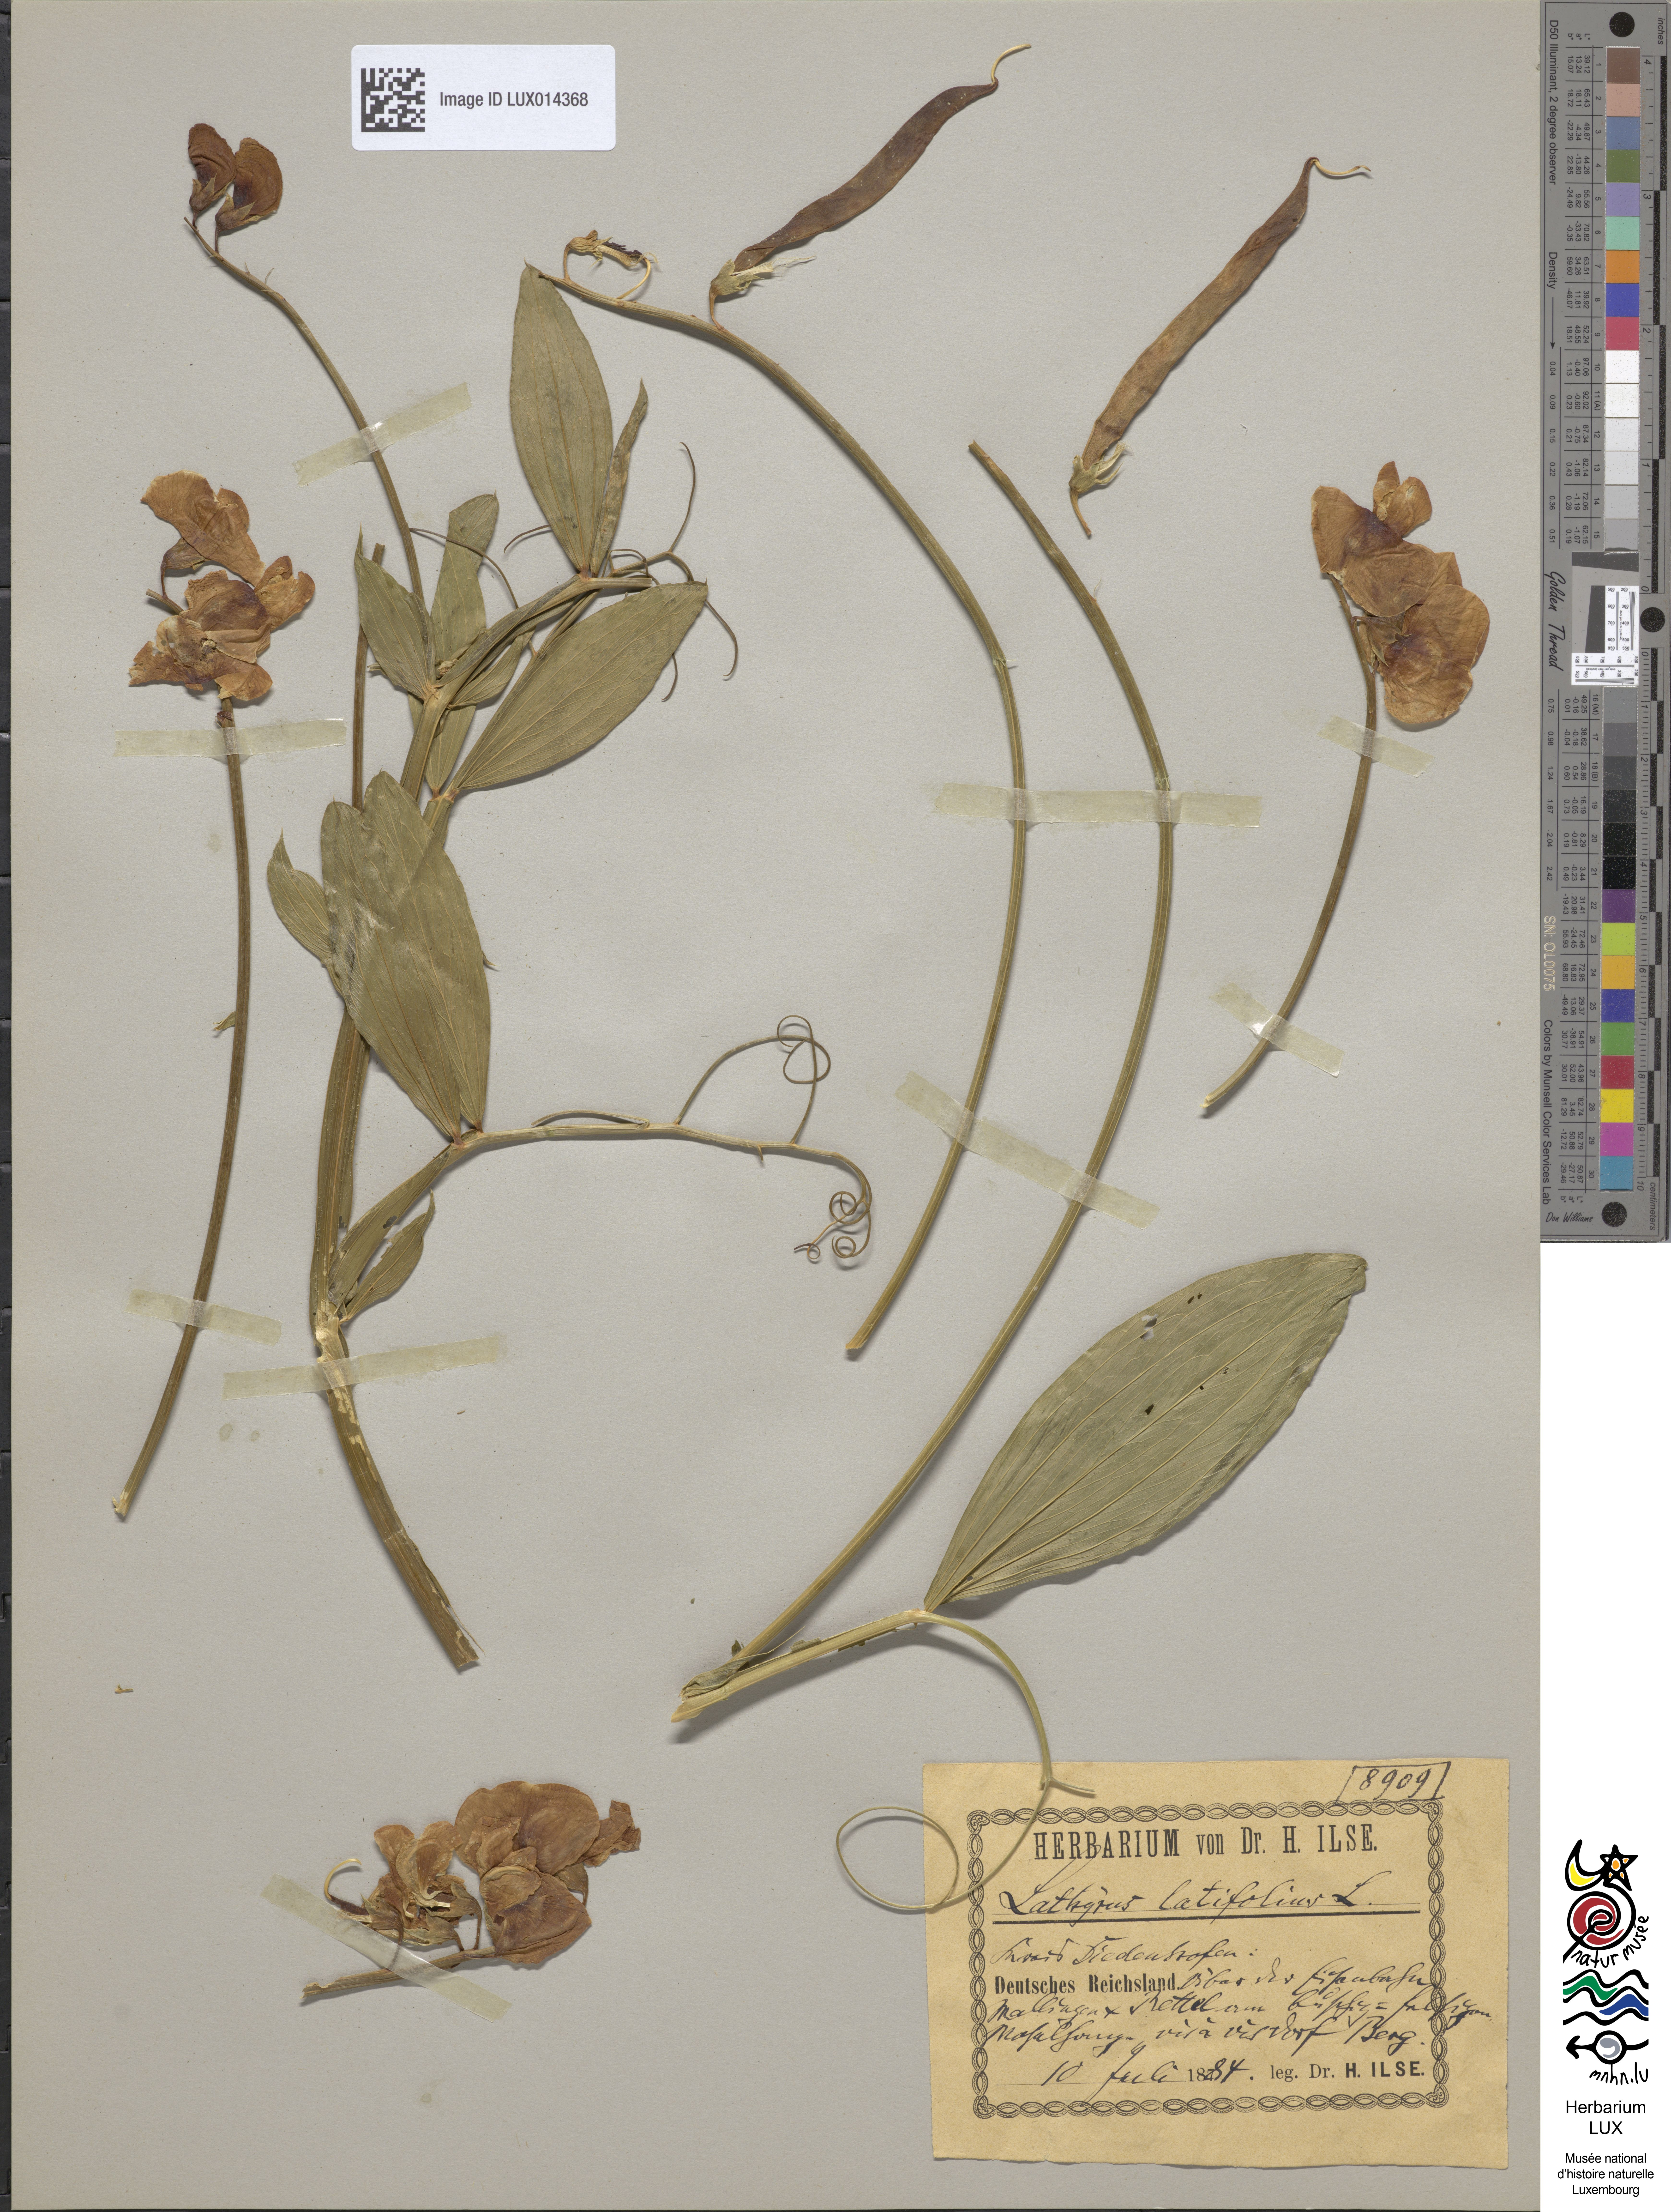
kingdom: Plantae
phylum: Tracheophyta
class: Magnoliopsida
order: Fabales
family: Fabaceae
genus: Lathyrus
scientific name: Lathyrus latifolius
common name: Perennial pea
